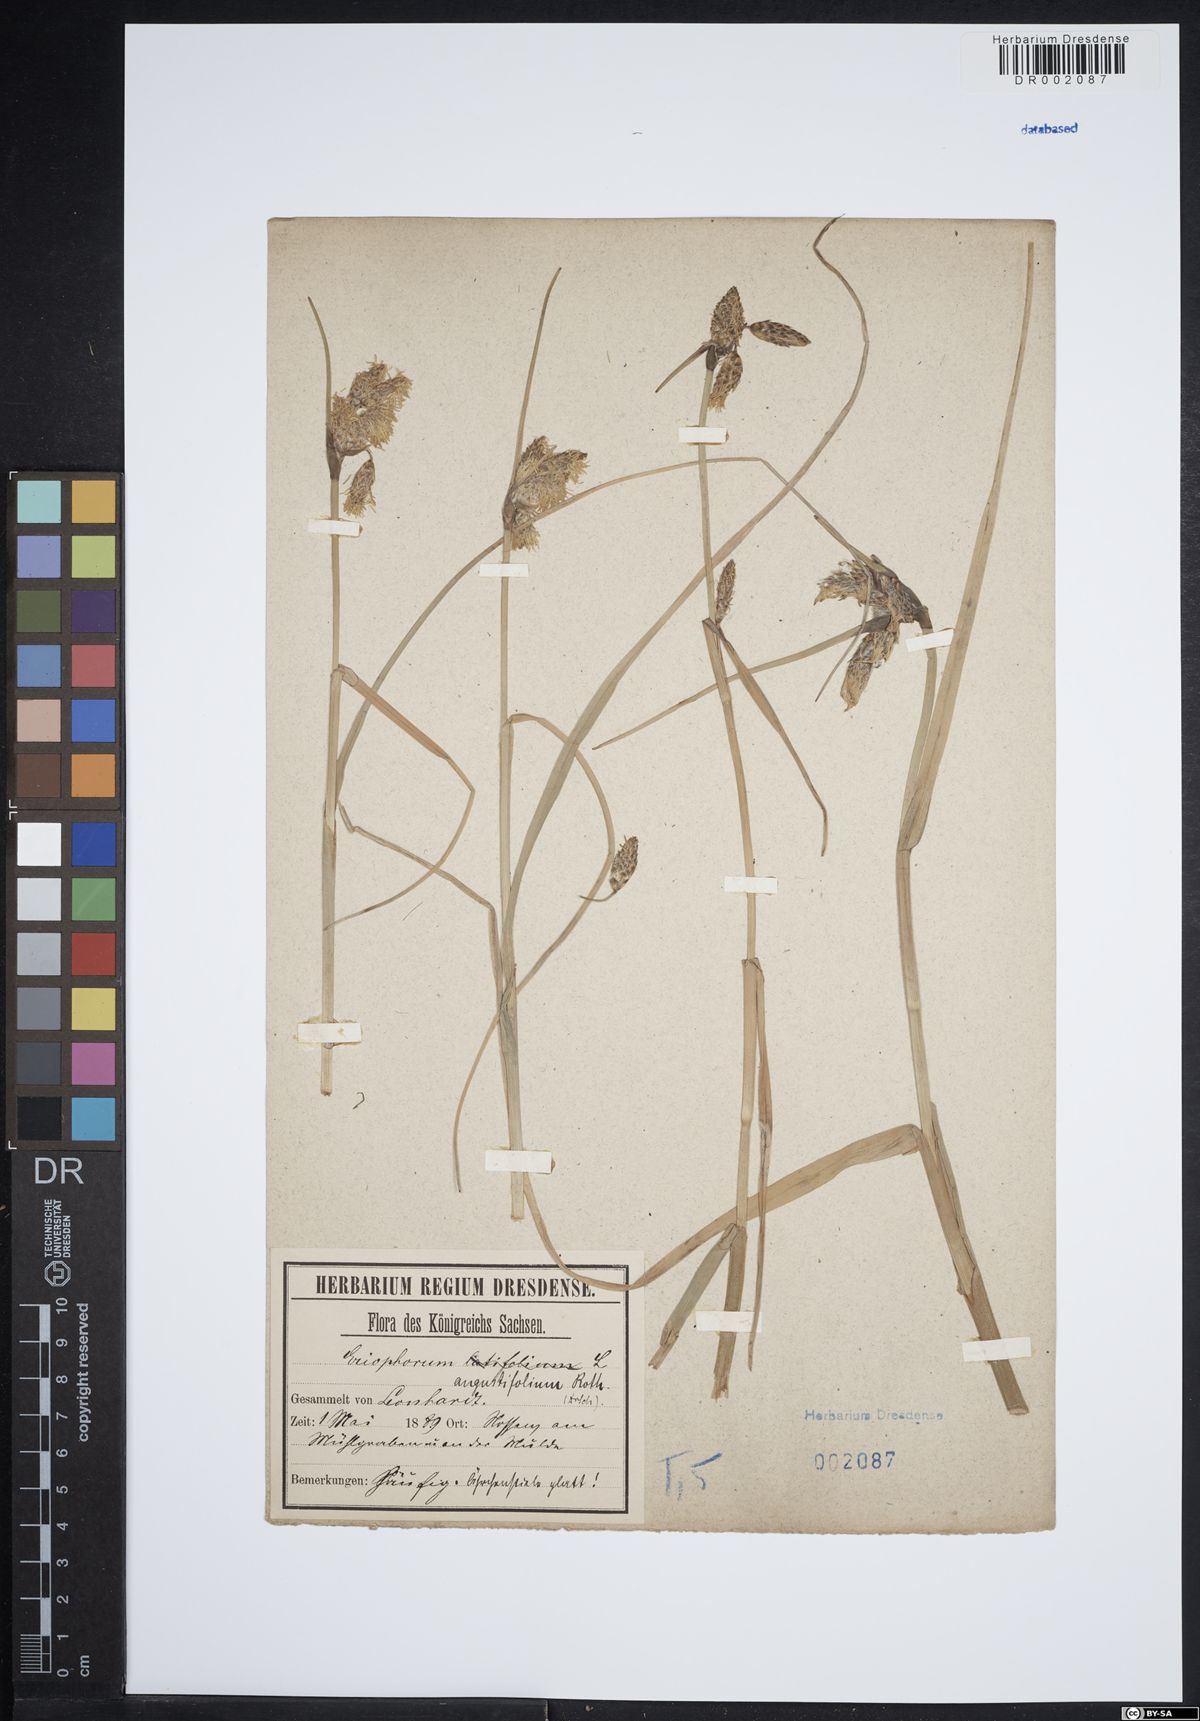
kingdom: Plantae
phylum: Tracheophyta
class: Liliopsida
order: Poales
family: Cyperaceae
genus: Eriophorum
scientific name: Eriophorum angustifolium
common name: Common cottongrass
